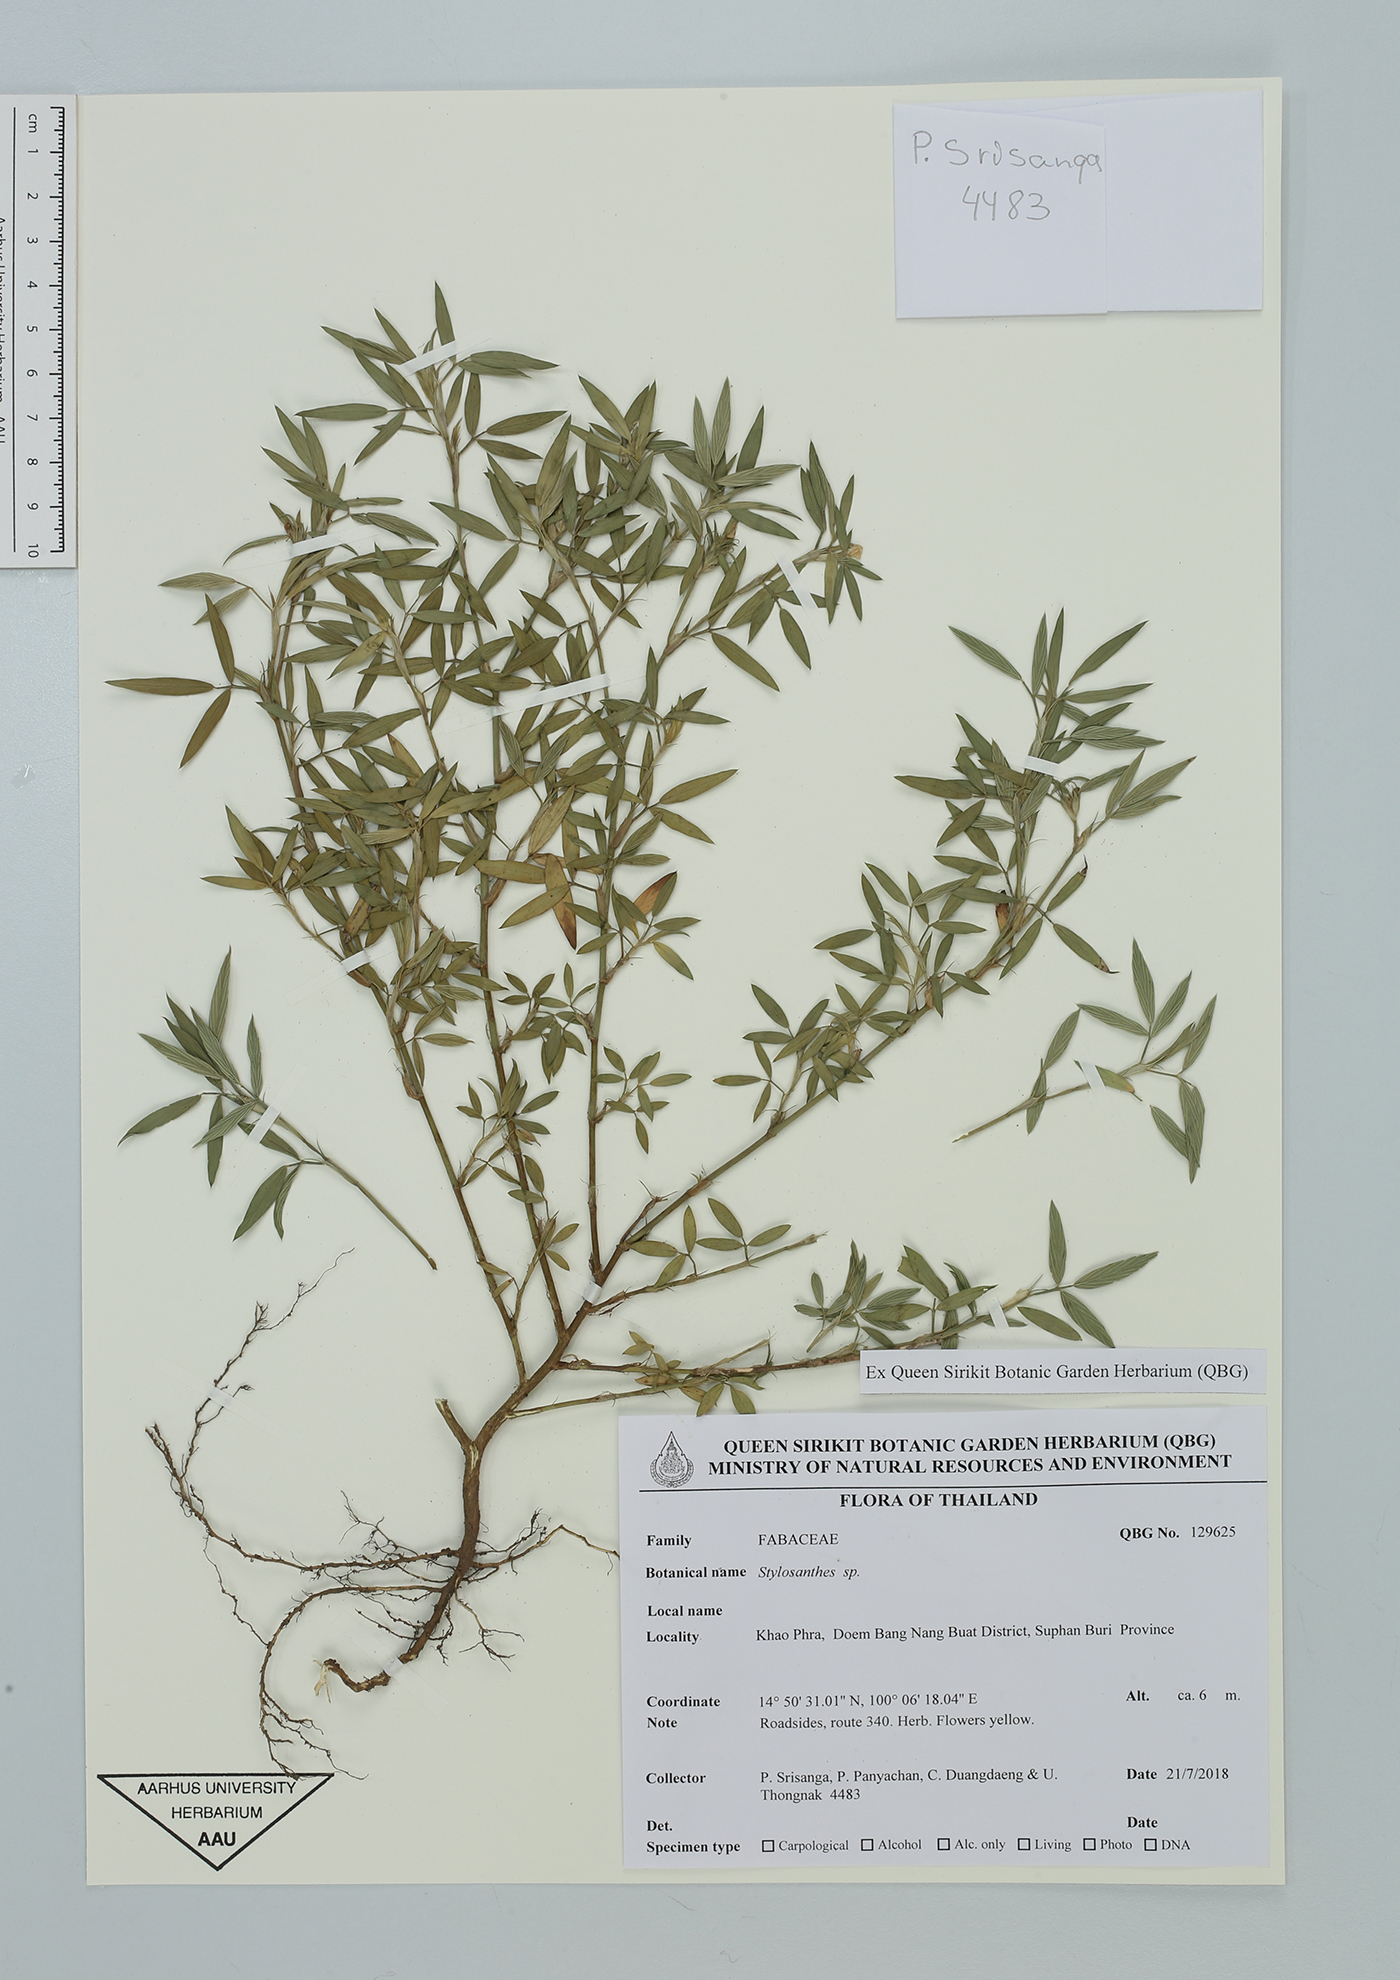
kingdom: Plantae
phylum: Tracheophyta
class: Magnoliopsida
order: Fabales
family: Fabaceae
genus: Stylosanthes
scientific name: Stylosanthes
